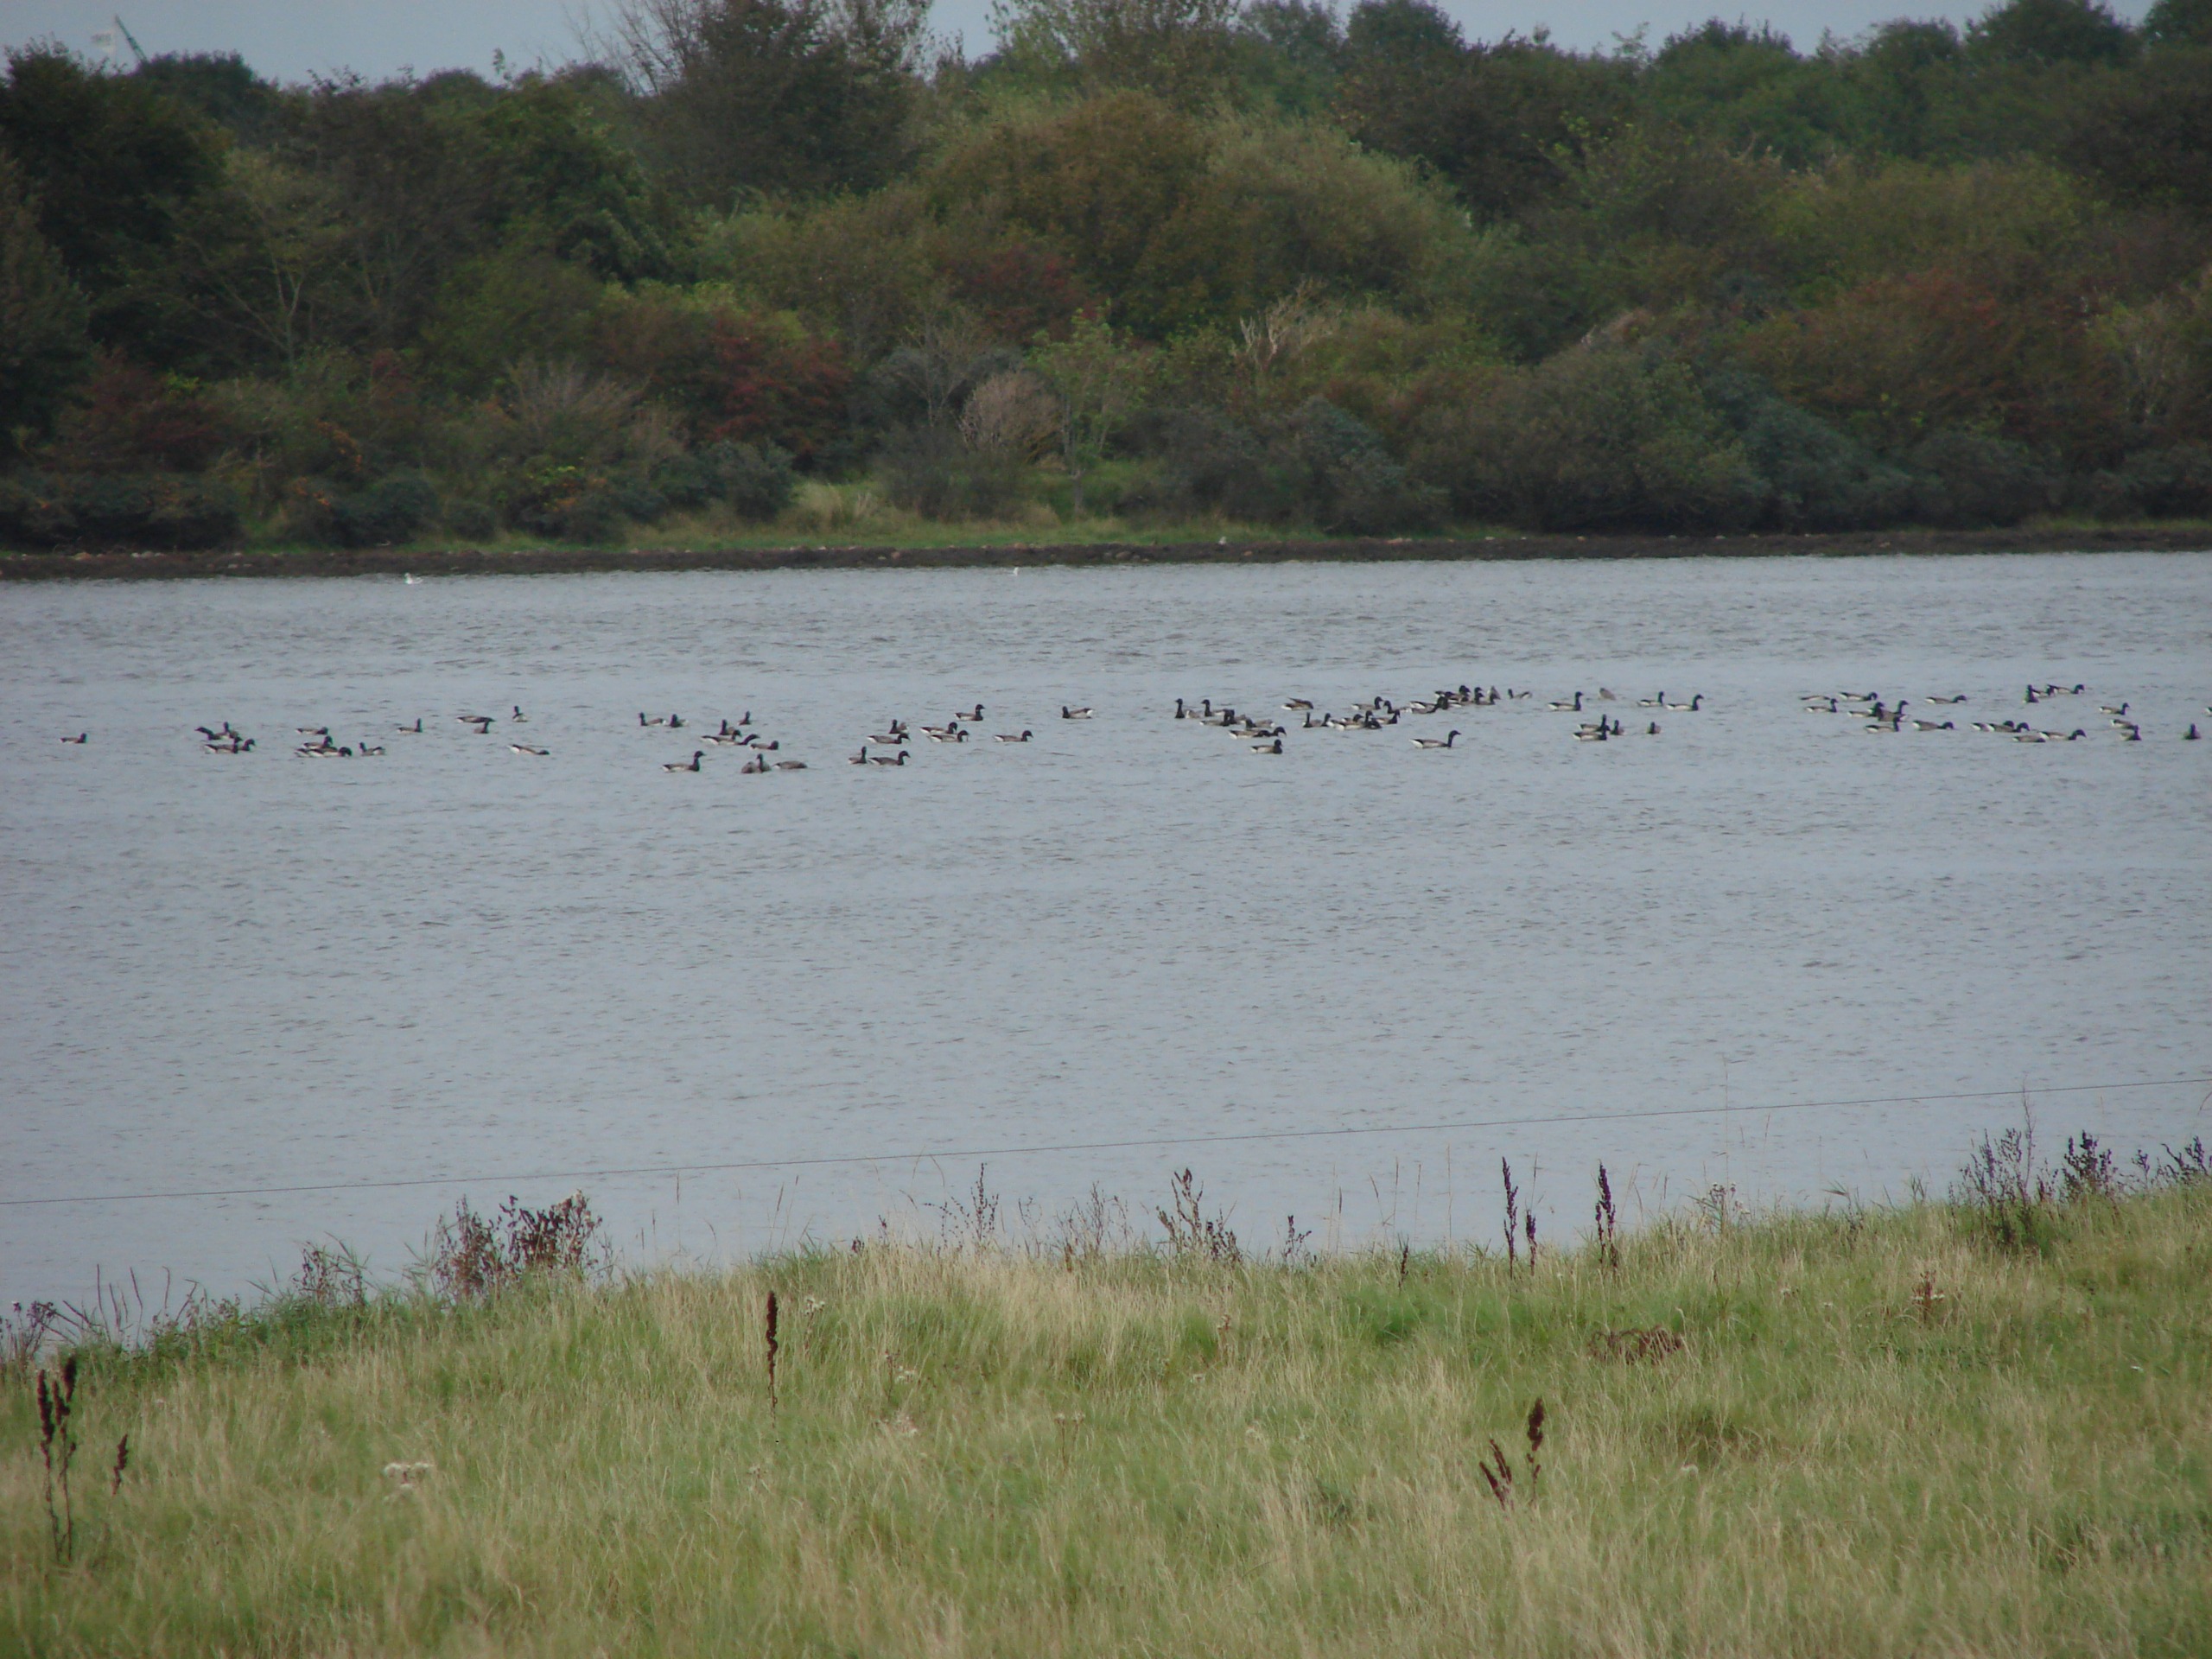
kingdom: Animalia
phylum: Chordata
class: Aves
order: Anseriformes
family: Anatidae
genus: Branta
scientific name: Branta bernicla
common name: Lysbuget knortegås
